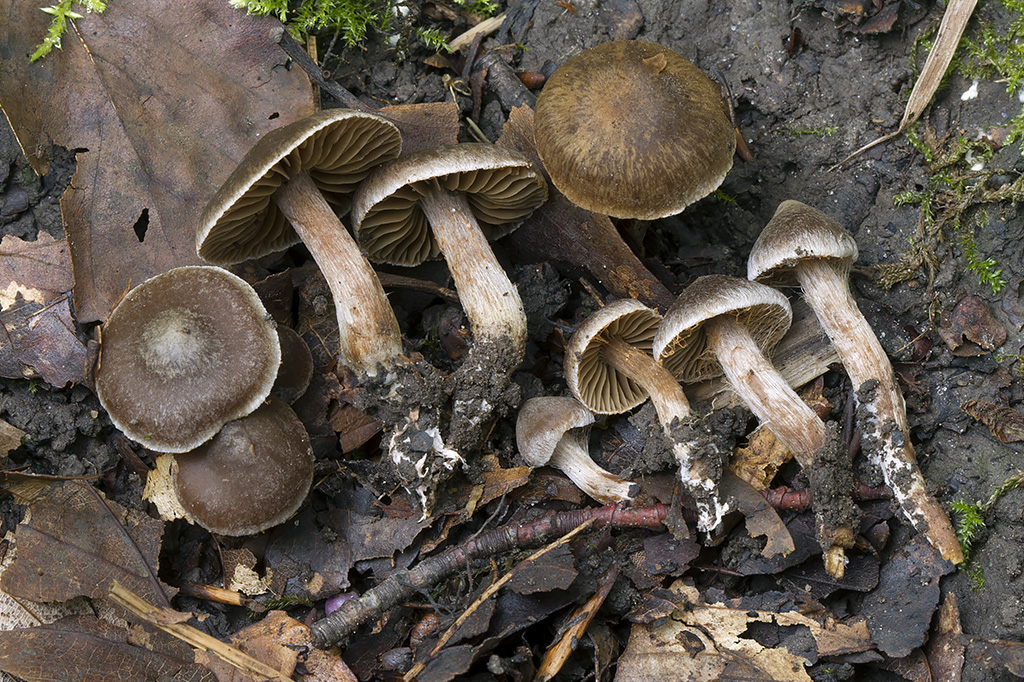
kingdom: Fungi
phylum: Basidiomycota
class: Agaricomycetes
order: Agaricales
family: Cortinariaceae
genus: Cortinarius
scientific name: Cortinarius alboadustus
